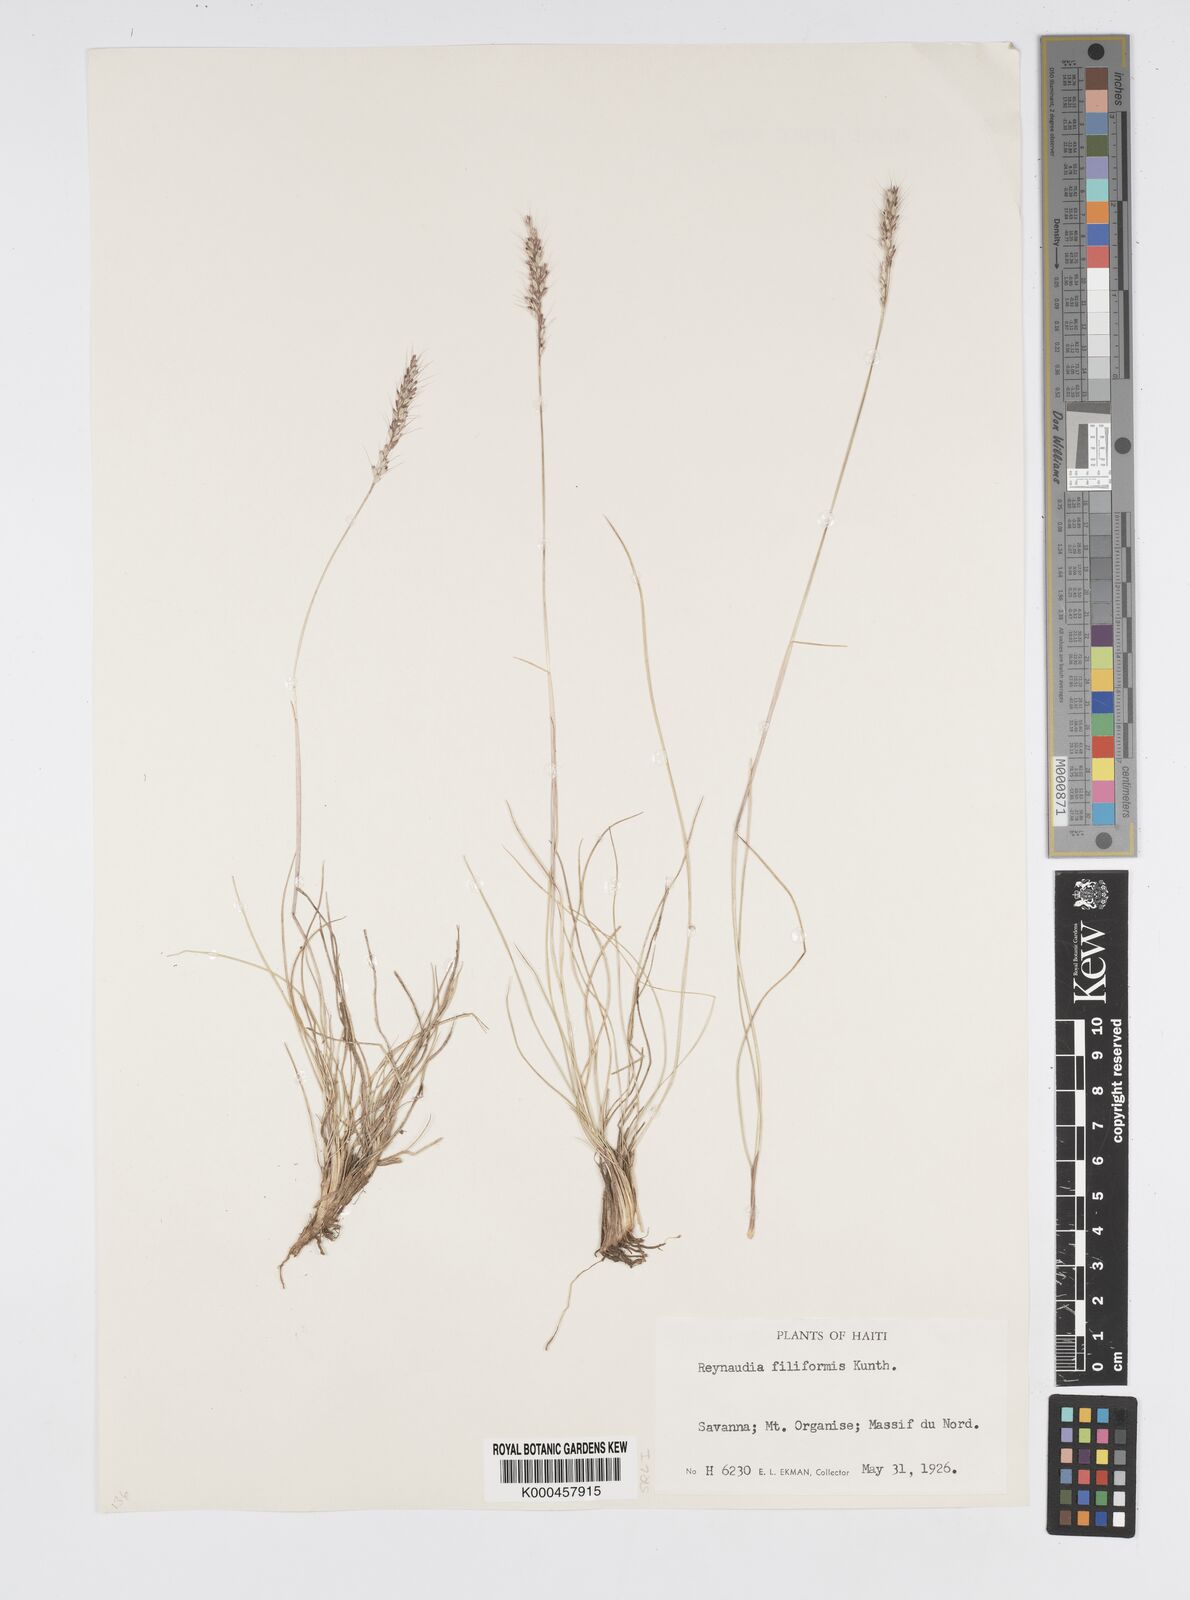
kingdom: Plantae
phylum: Tracheophyta
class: Liliopsida
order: Poales
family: Poaceae
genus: Reynaudia
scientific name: Reynaudia filiformis
